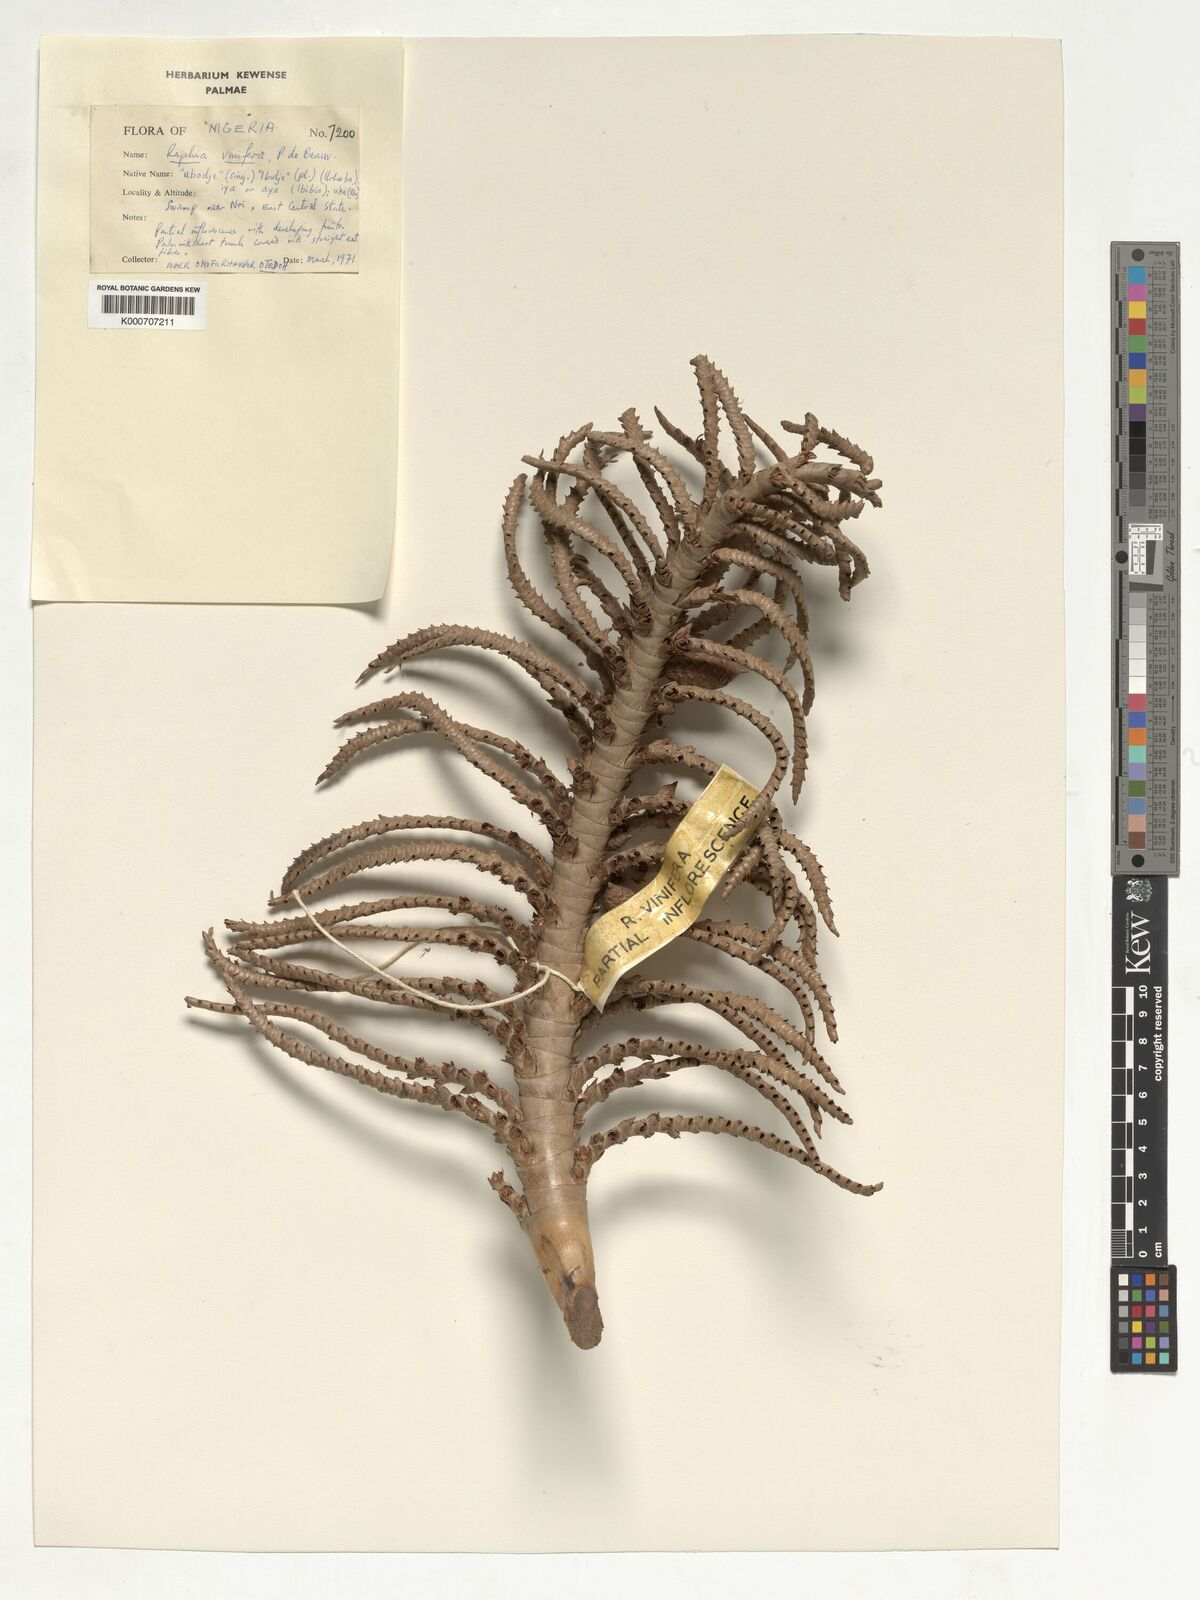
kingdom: Plantae
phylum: Tracheophyta
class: Liliopsida
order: Arecales
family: Arecaceae
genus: Raphia
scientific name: Raphia vinifera
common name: Raphia palm
